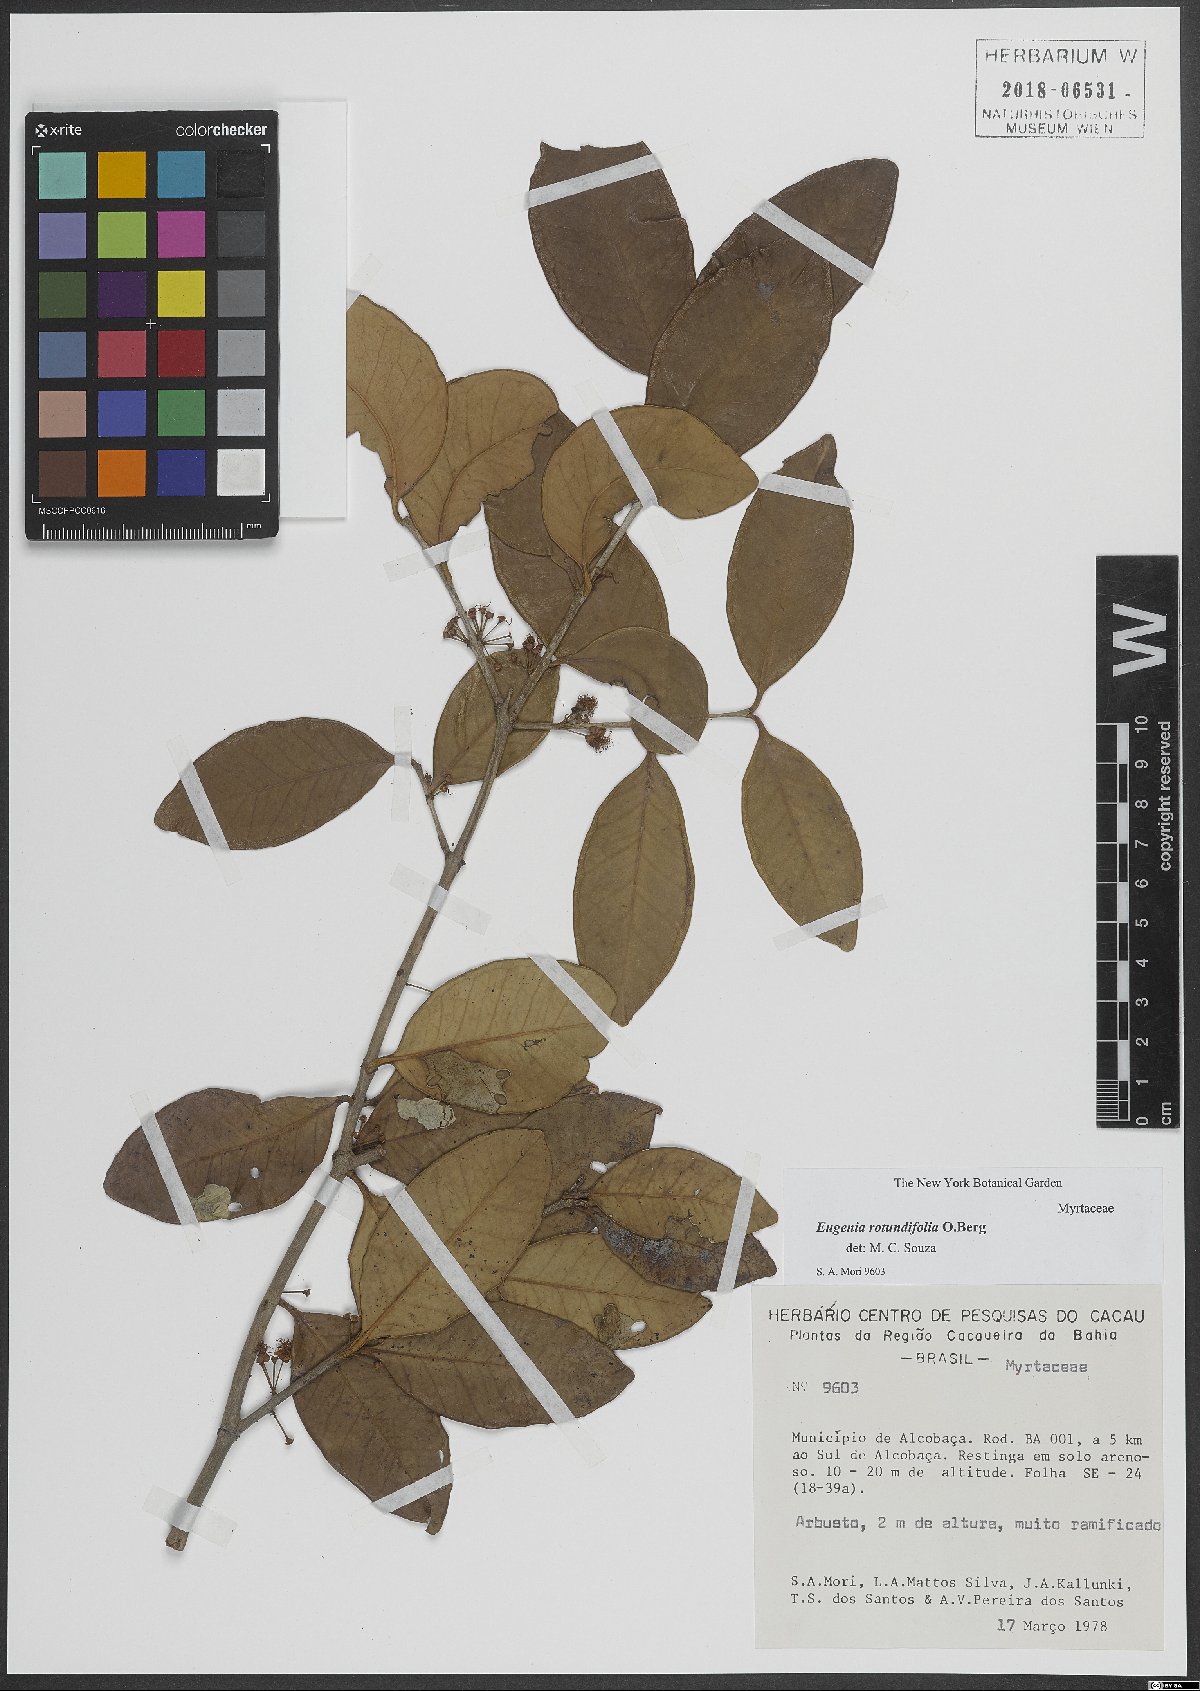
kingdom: Plantae
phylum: Tracheophyta
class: Magnoliopsida
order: Myrtales
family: Myrtaceae
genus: Eugenia
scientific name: Eugenia casarettoana
